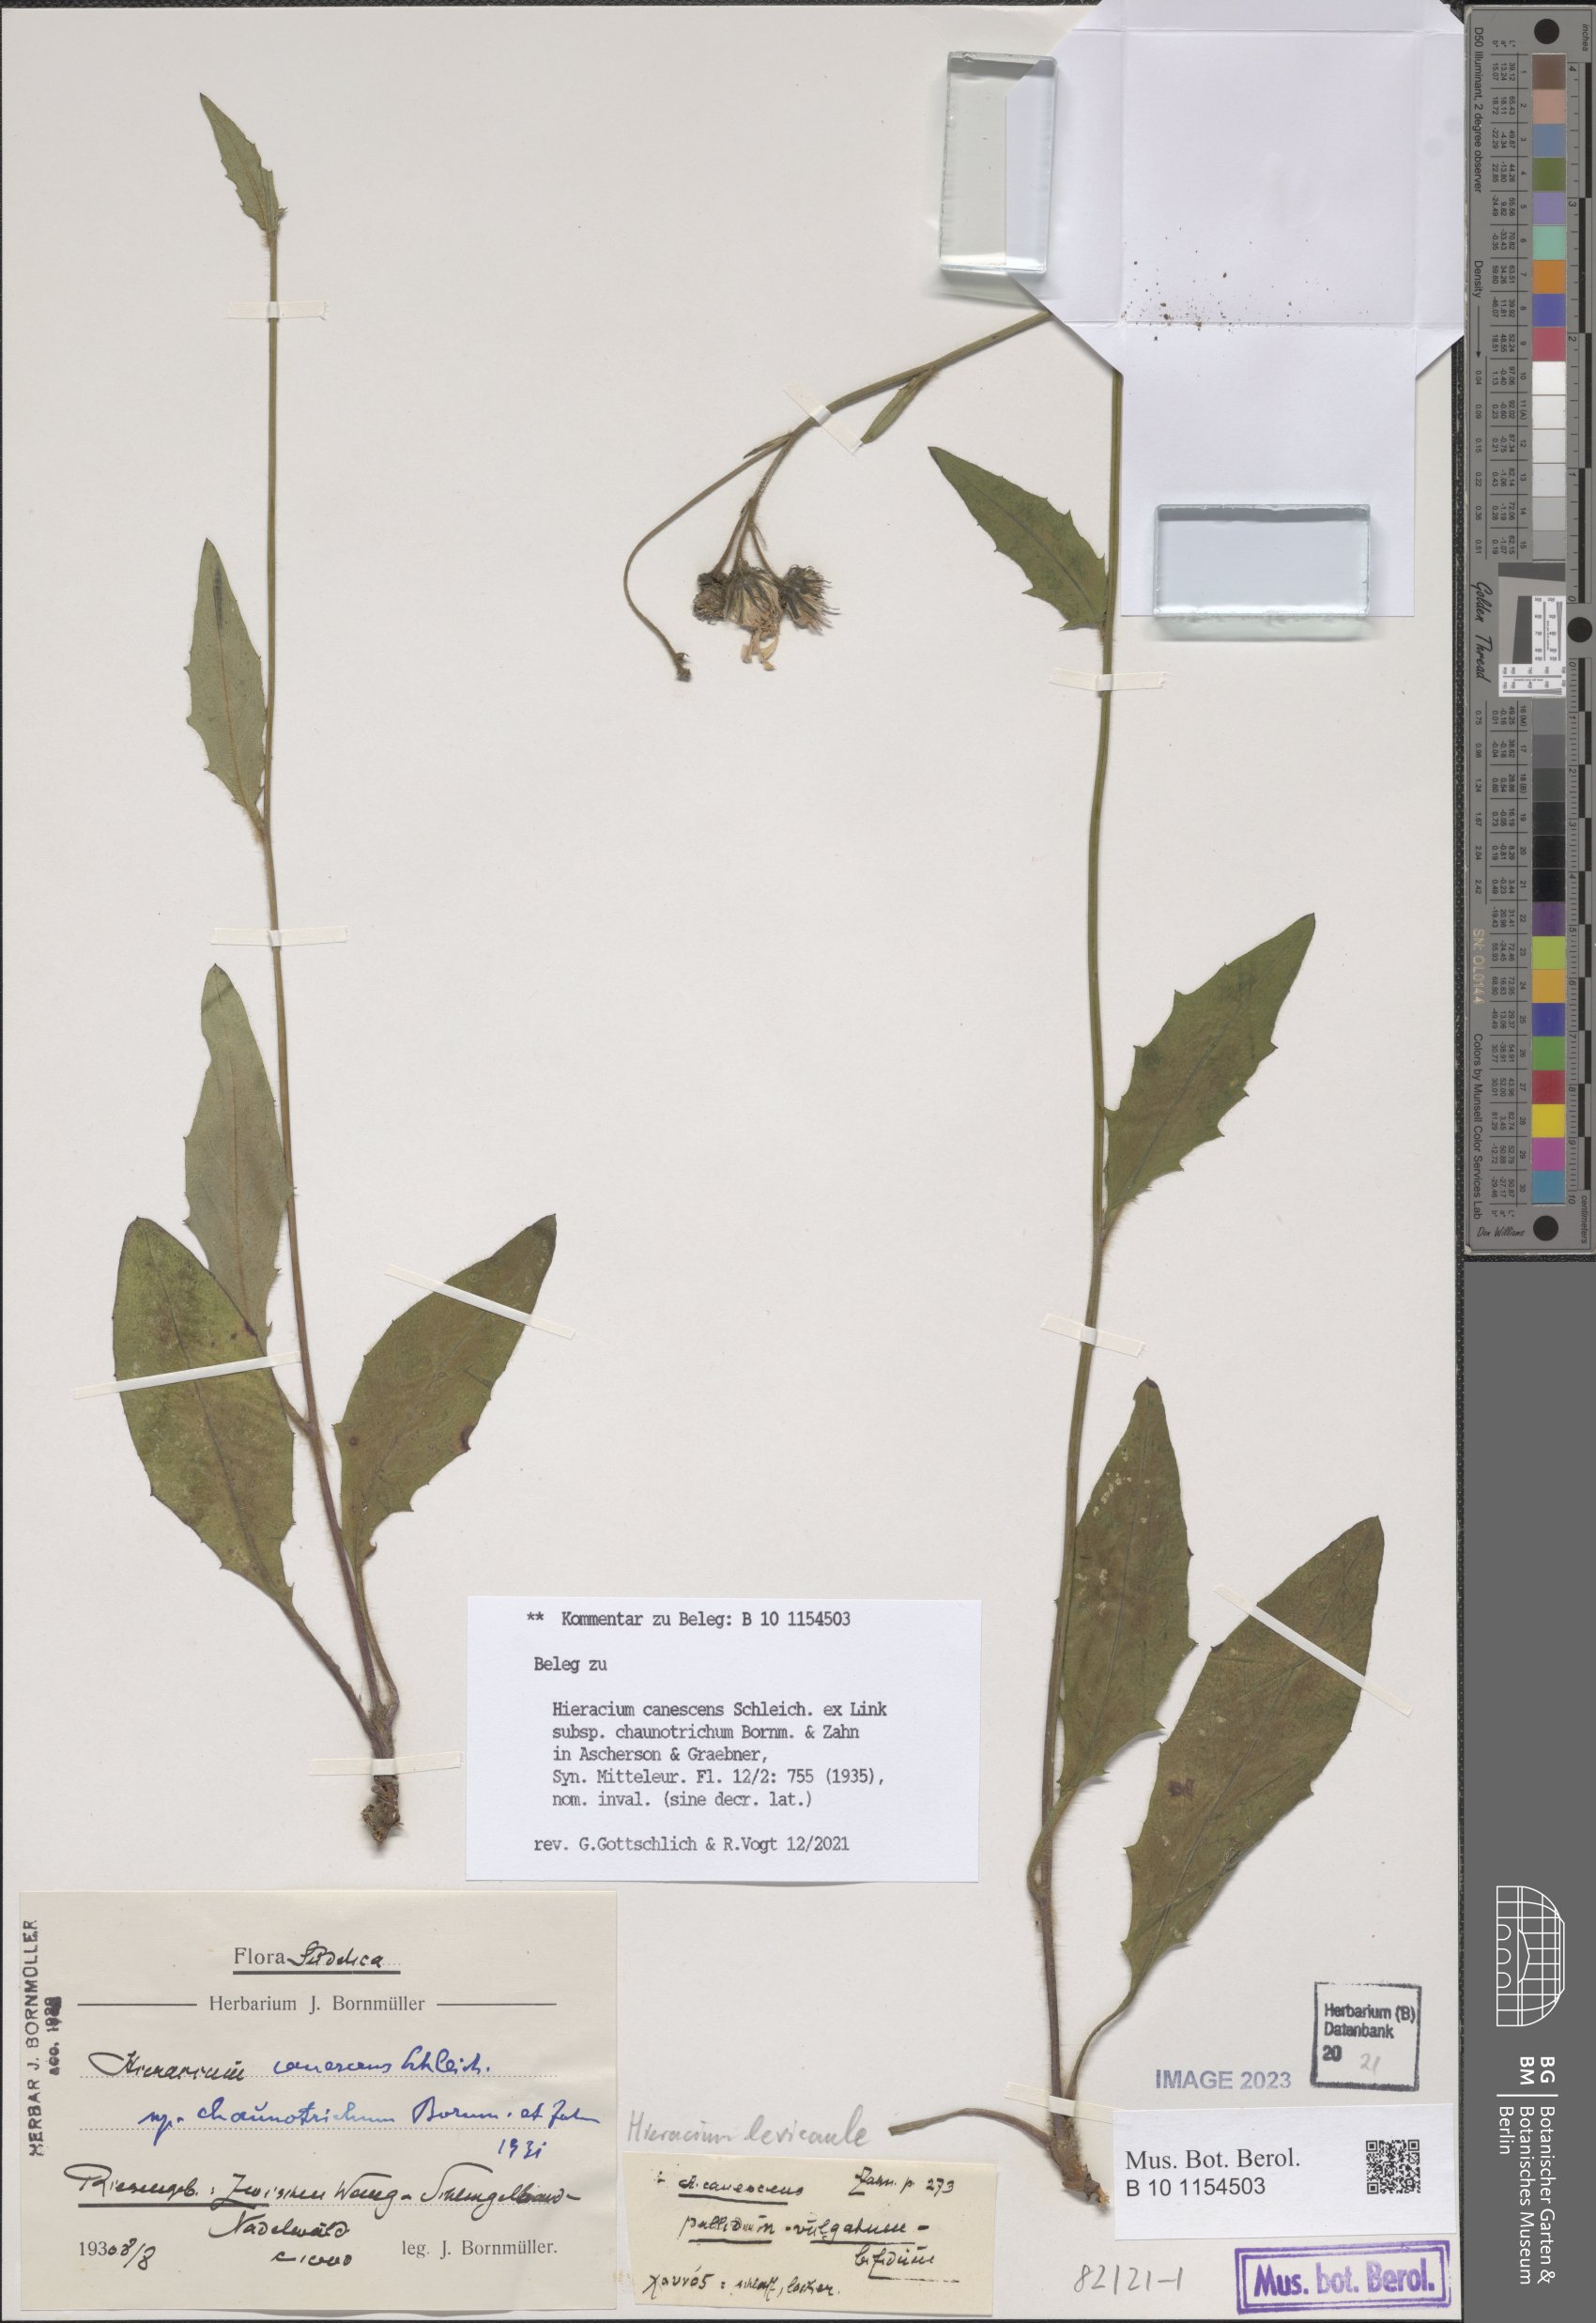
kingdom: Plantae
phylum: Tracheophyta
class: Magnoliopsida
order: Asterales
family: Asteraceae
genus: Hieracium
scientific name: Hieracium levicaule
